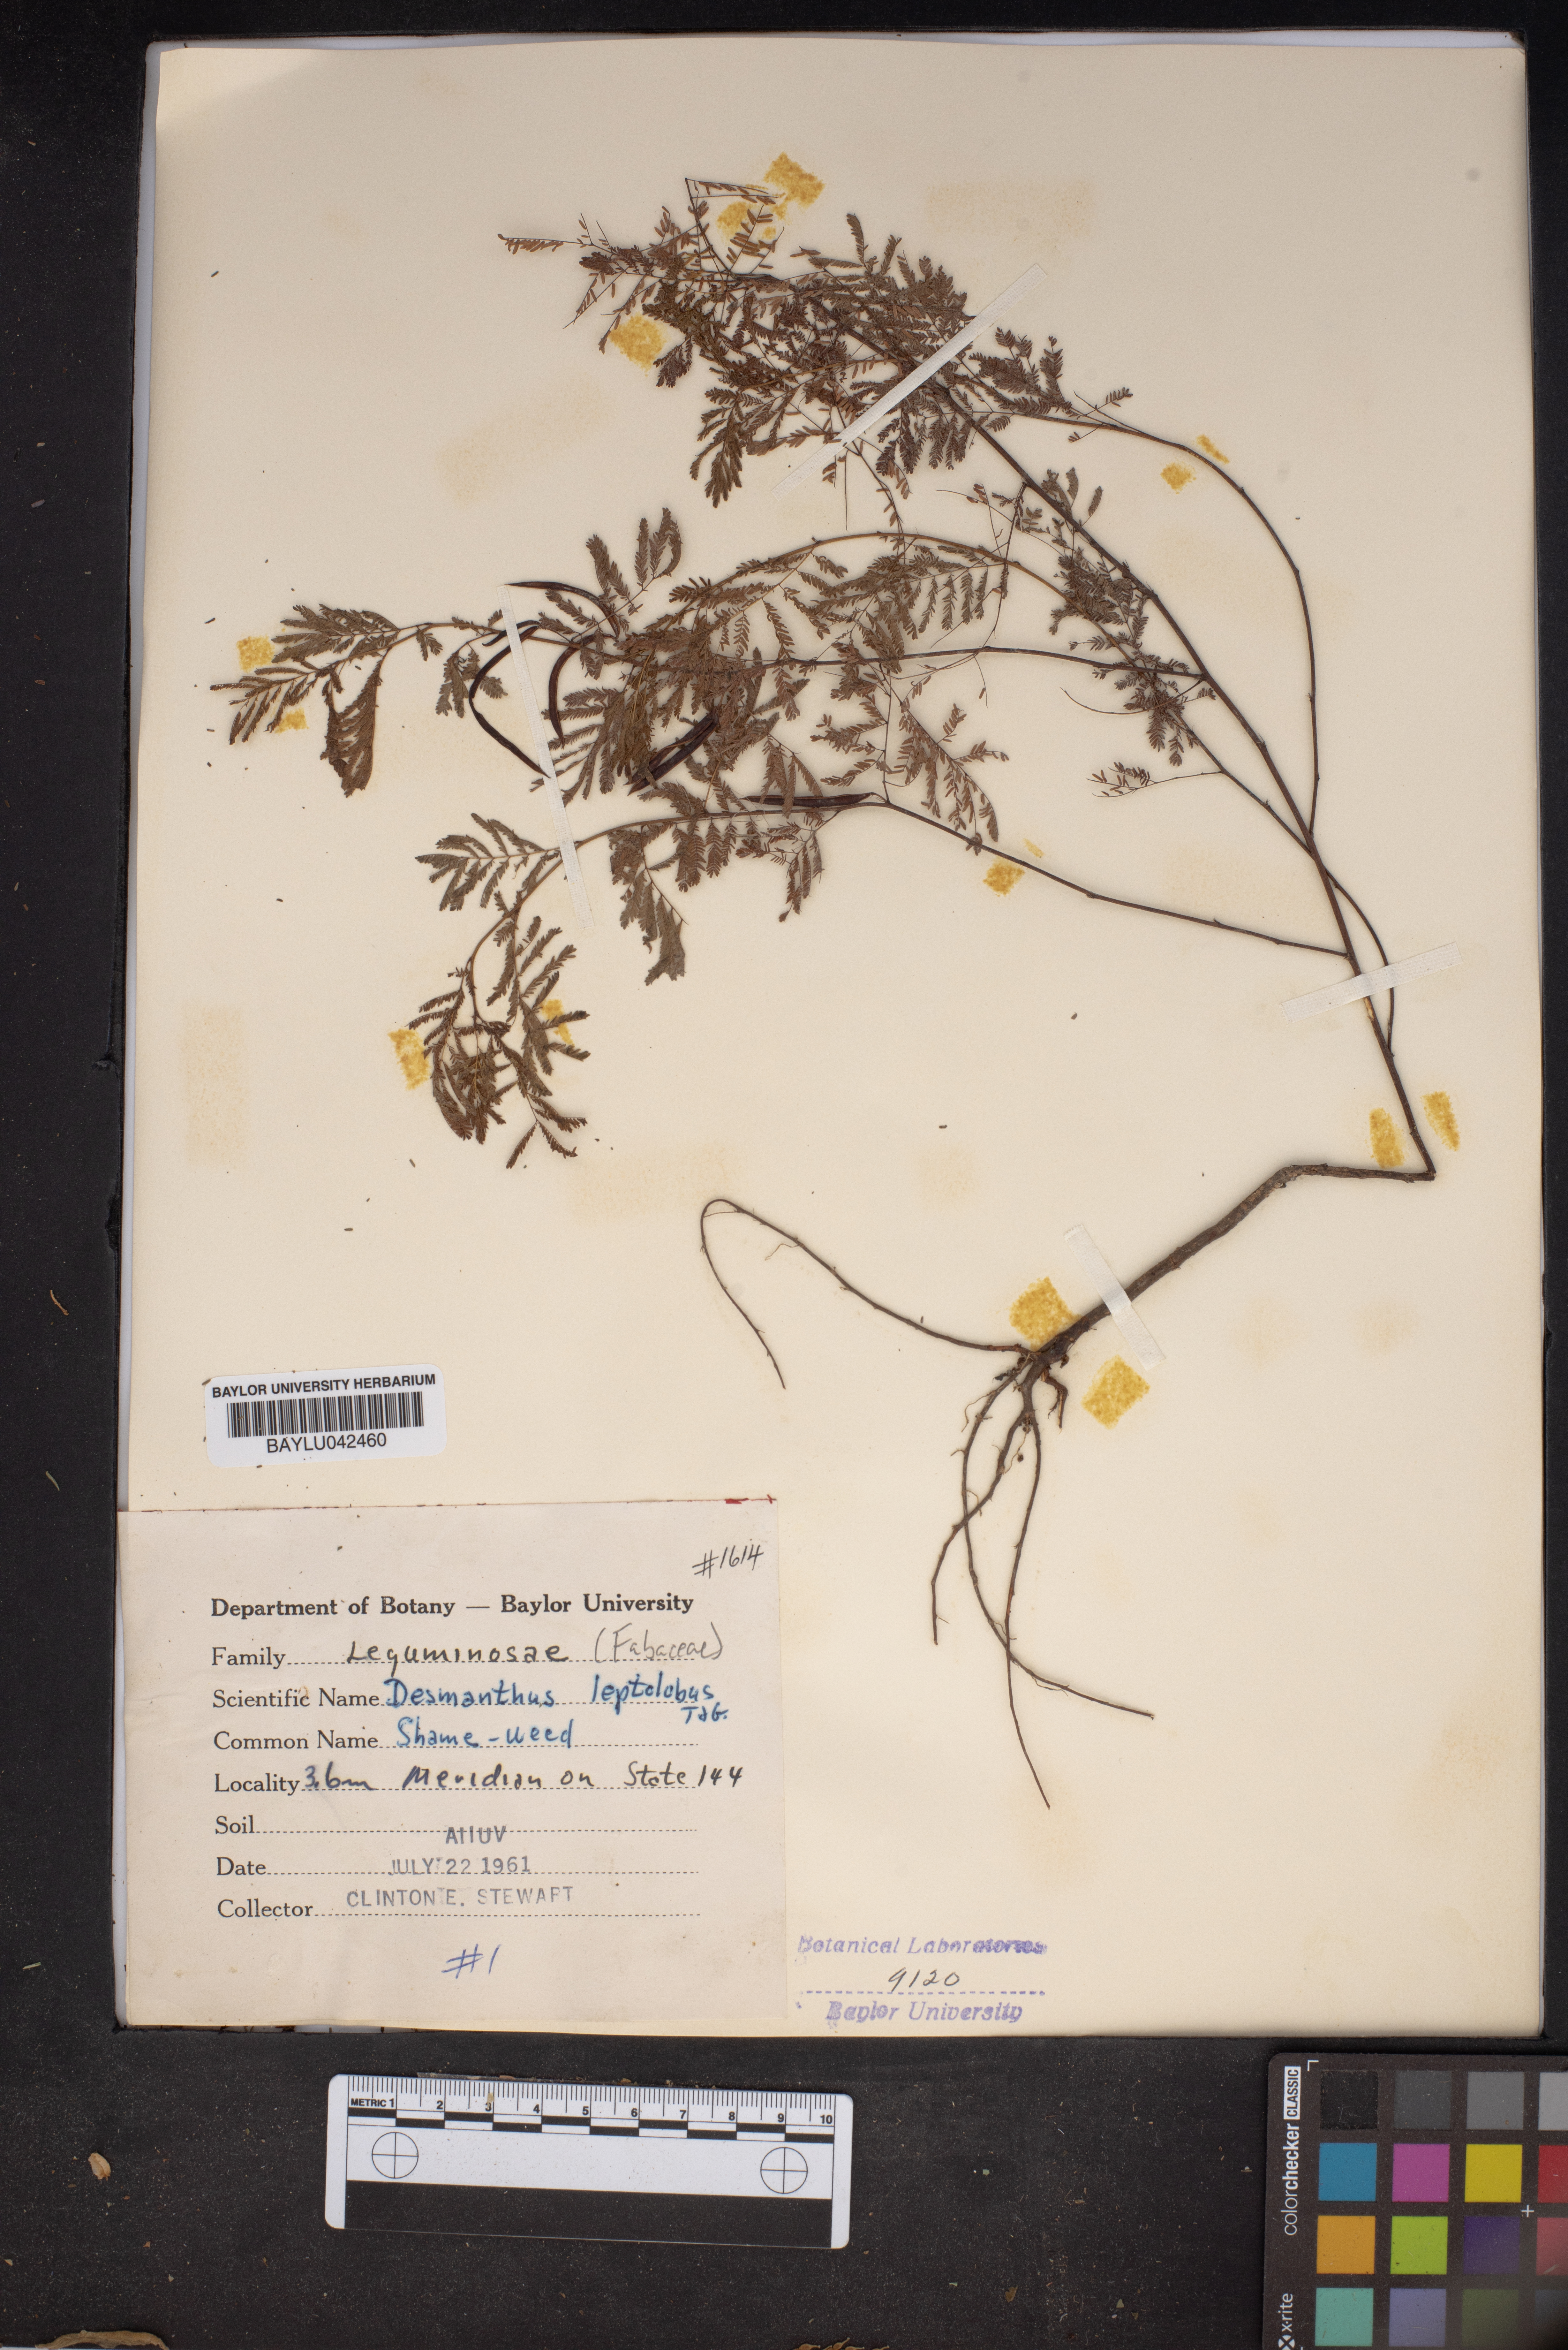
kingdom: Plantae
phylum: Tracheophyta
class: Magnoliopsida
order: Fabales
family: Fabaceae
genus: Desmanthus
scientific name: Desmanthus leptolobus
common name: Prairie-mimosa
